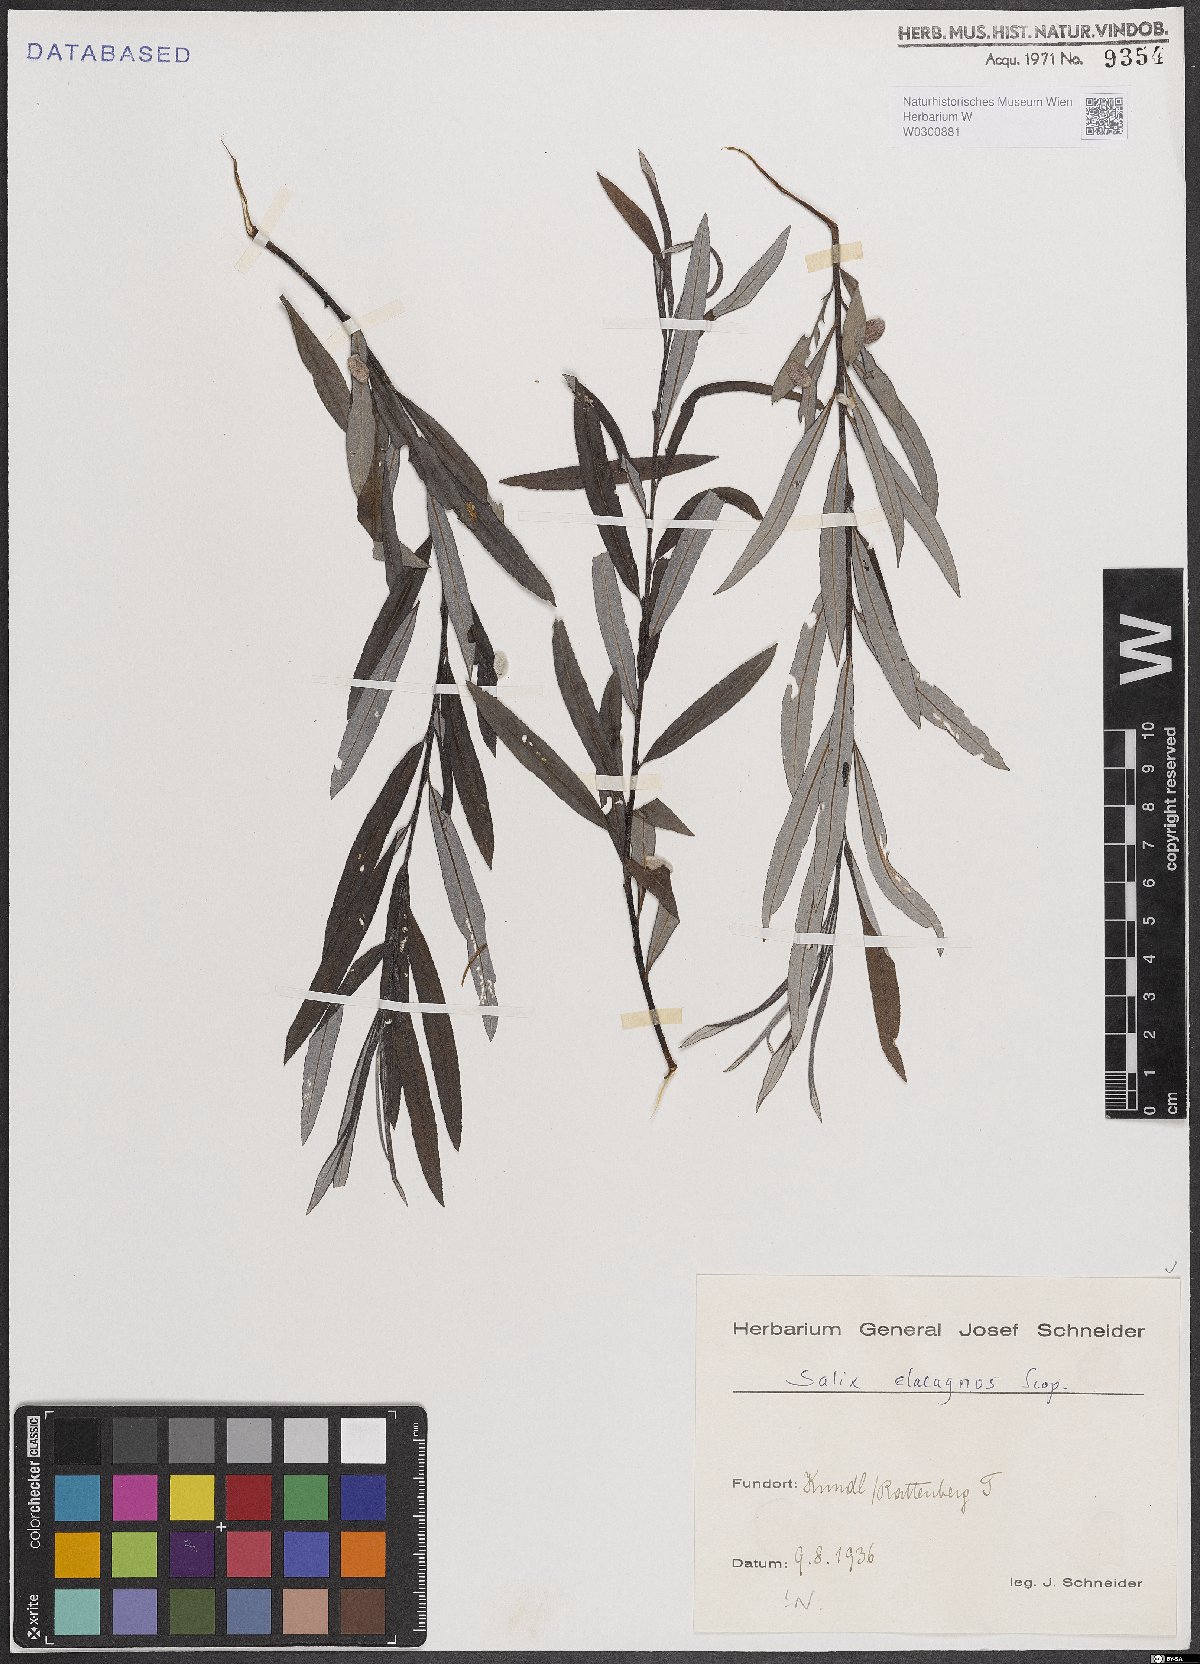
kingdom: Plantae
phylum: Tracheophyta
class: Magnoliopsida
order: Malpighiales
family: Salicaceae
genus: Salix
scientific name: Salix eleagnos
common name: Elaeagnus willow
